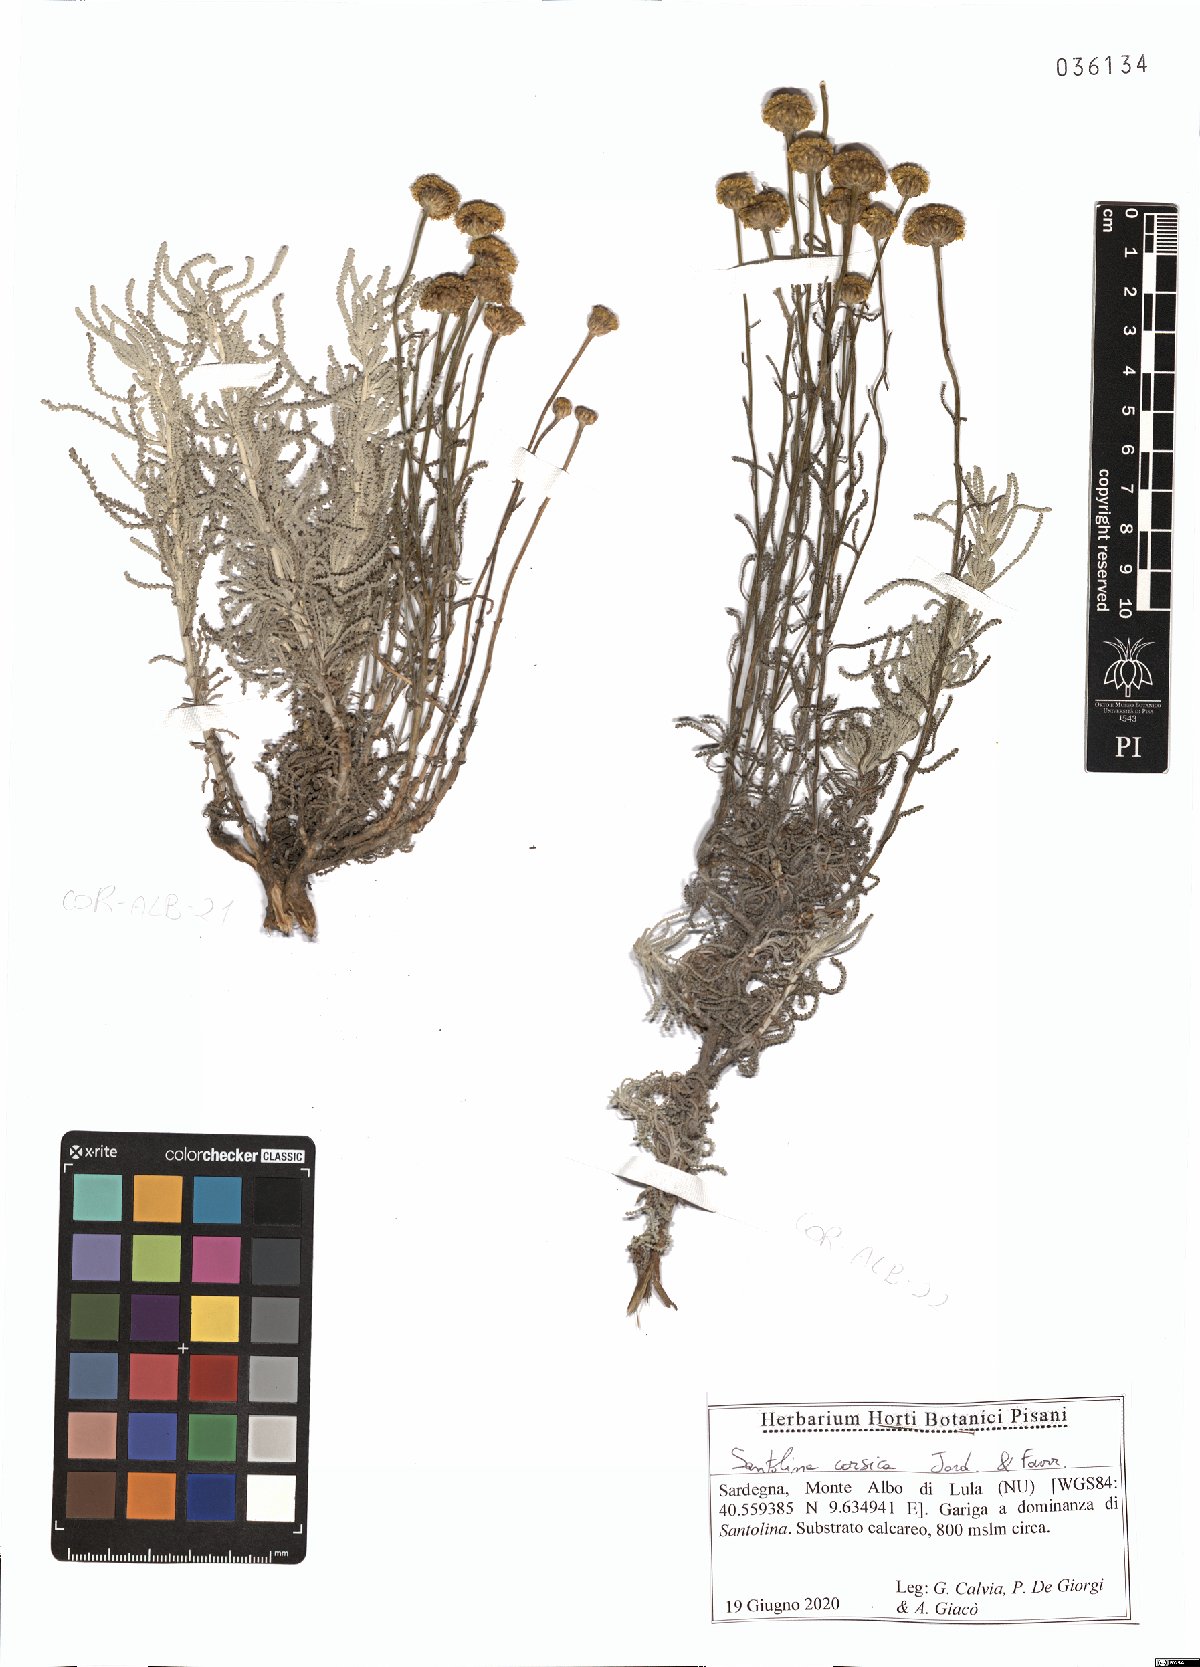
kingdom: Plantae
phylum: Tracheophyta
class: Magnoliopsida
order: Asterales
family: Asteraceae
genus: Santolina
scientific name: Santolina corsica
